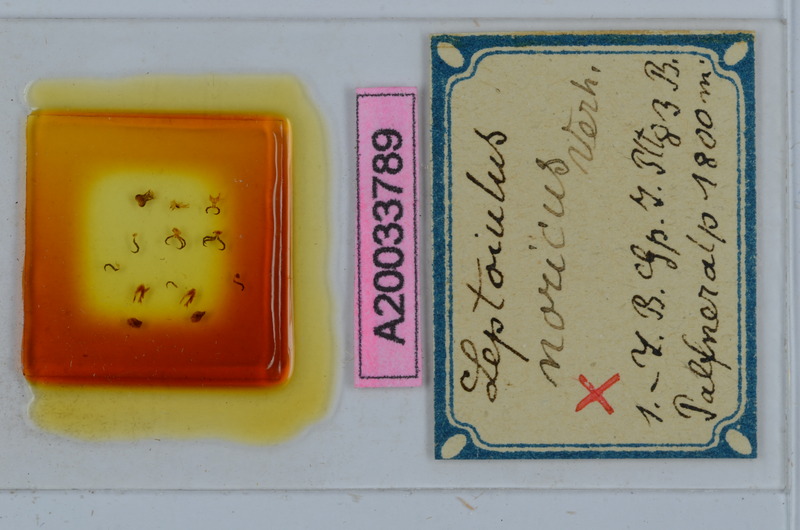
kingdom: Animalia
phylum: Arthropoda
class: Diplopoda
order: Julida
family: Julidae
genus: Leptoiulus
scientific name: Leptoiulus noricus
